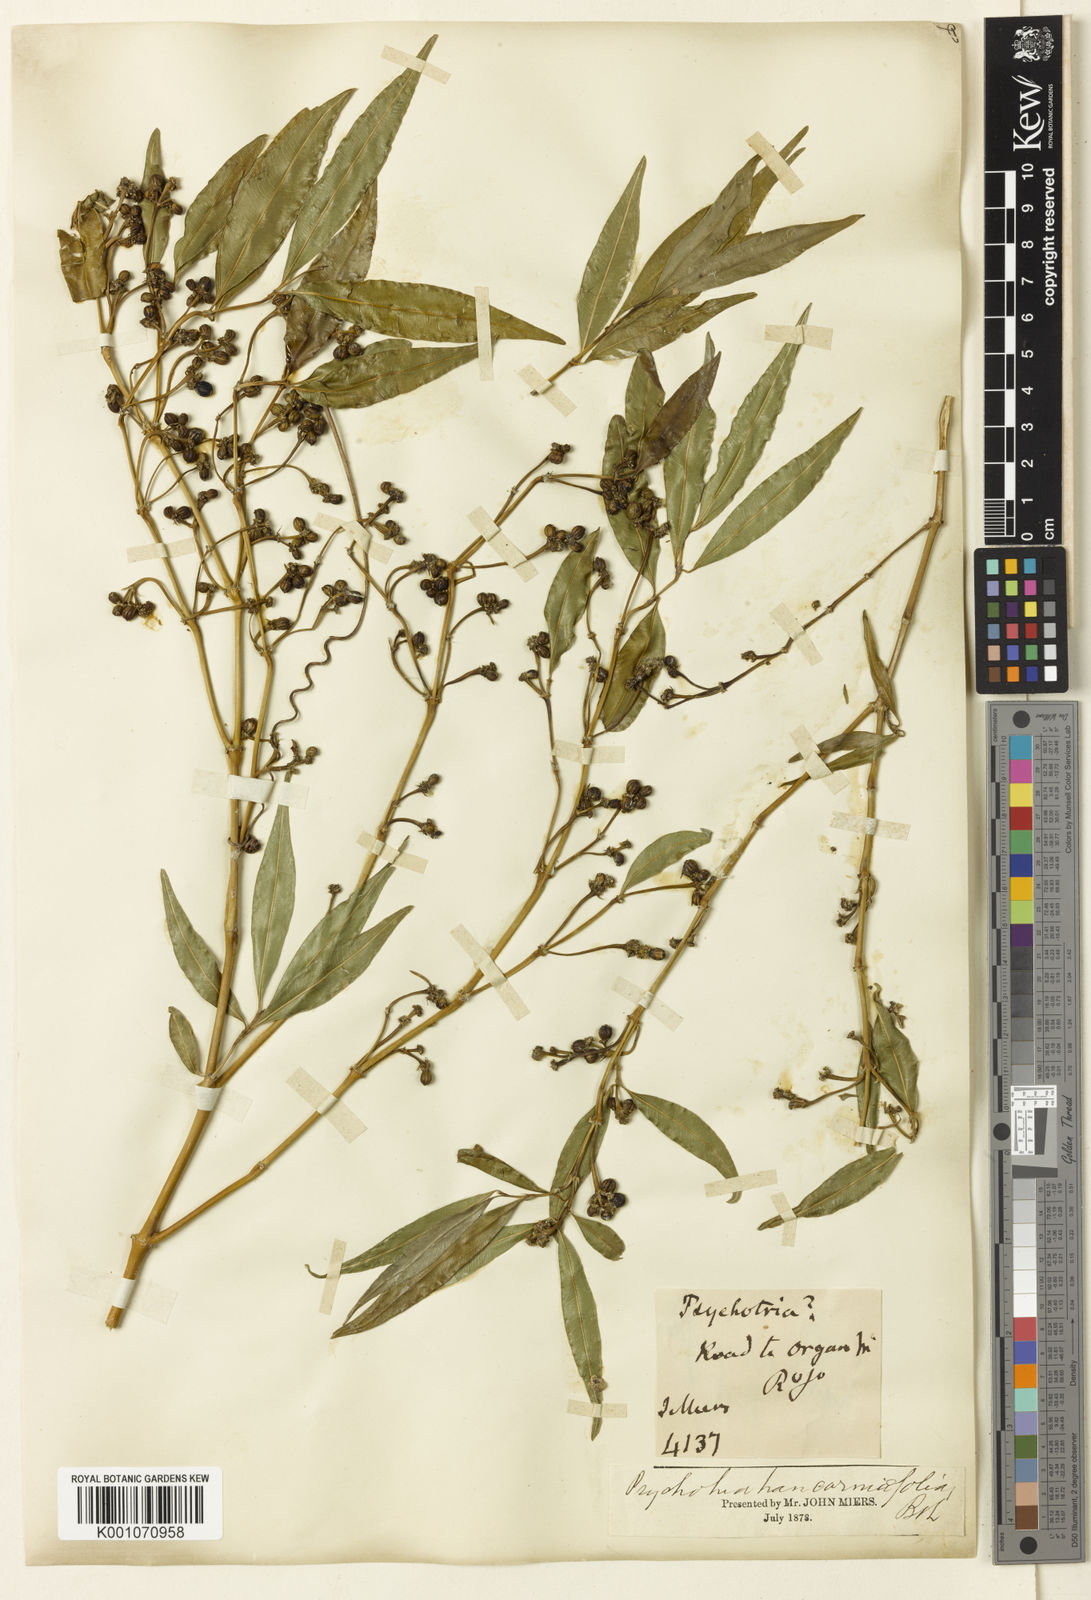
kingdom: Plantae
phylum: Tracheophyta
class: Magnoliopsida
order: Gentianales
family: Rubiaceae
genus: Palicourea
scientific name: Palicourea sessilis
